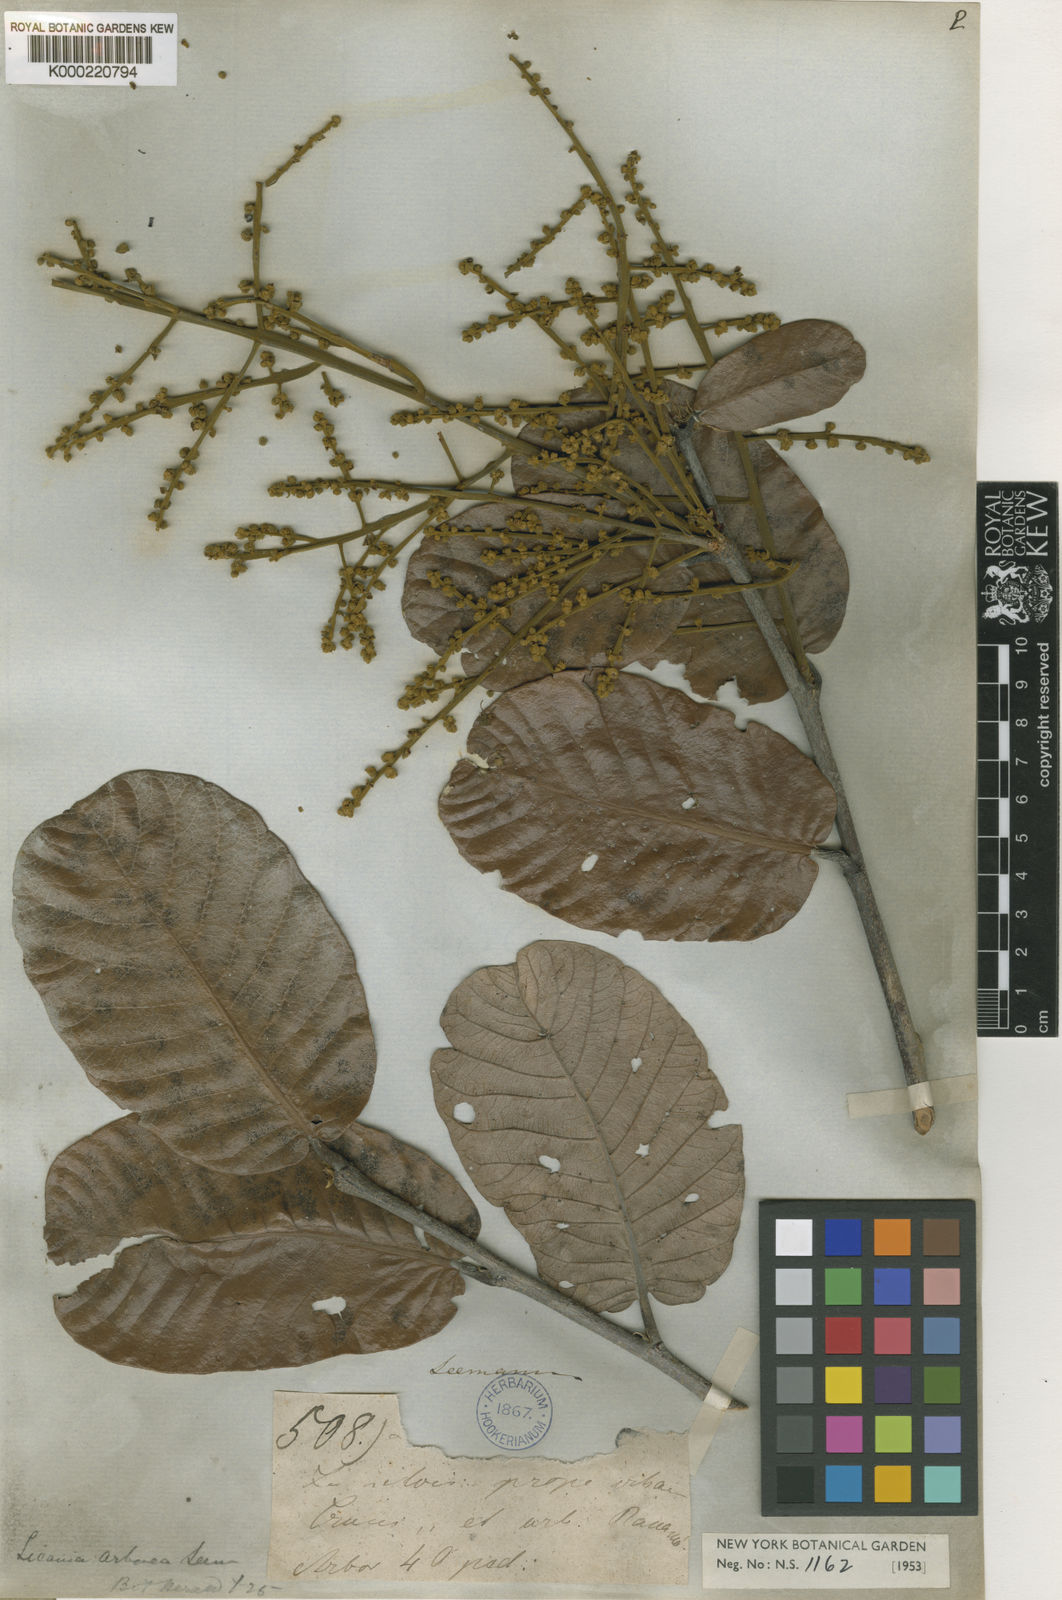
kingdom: Plantae
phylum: Tracheophyta
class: Magnoliopsida
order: Malpighiales
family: Chrysobalanaceae
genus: Microdesmia
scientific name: Microdesmia arborea
